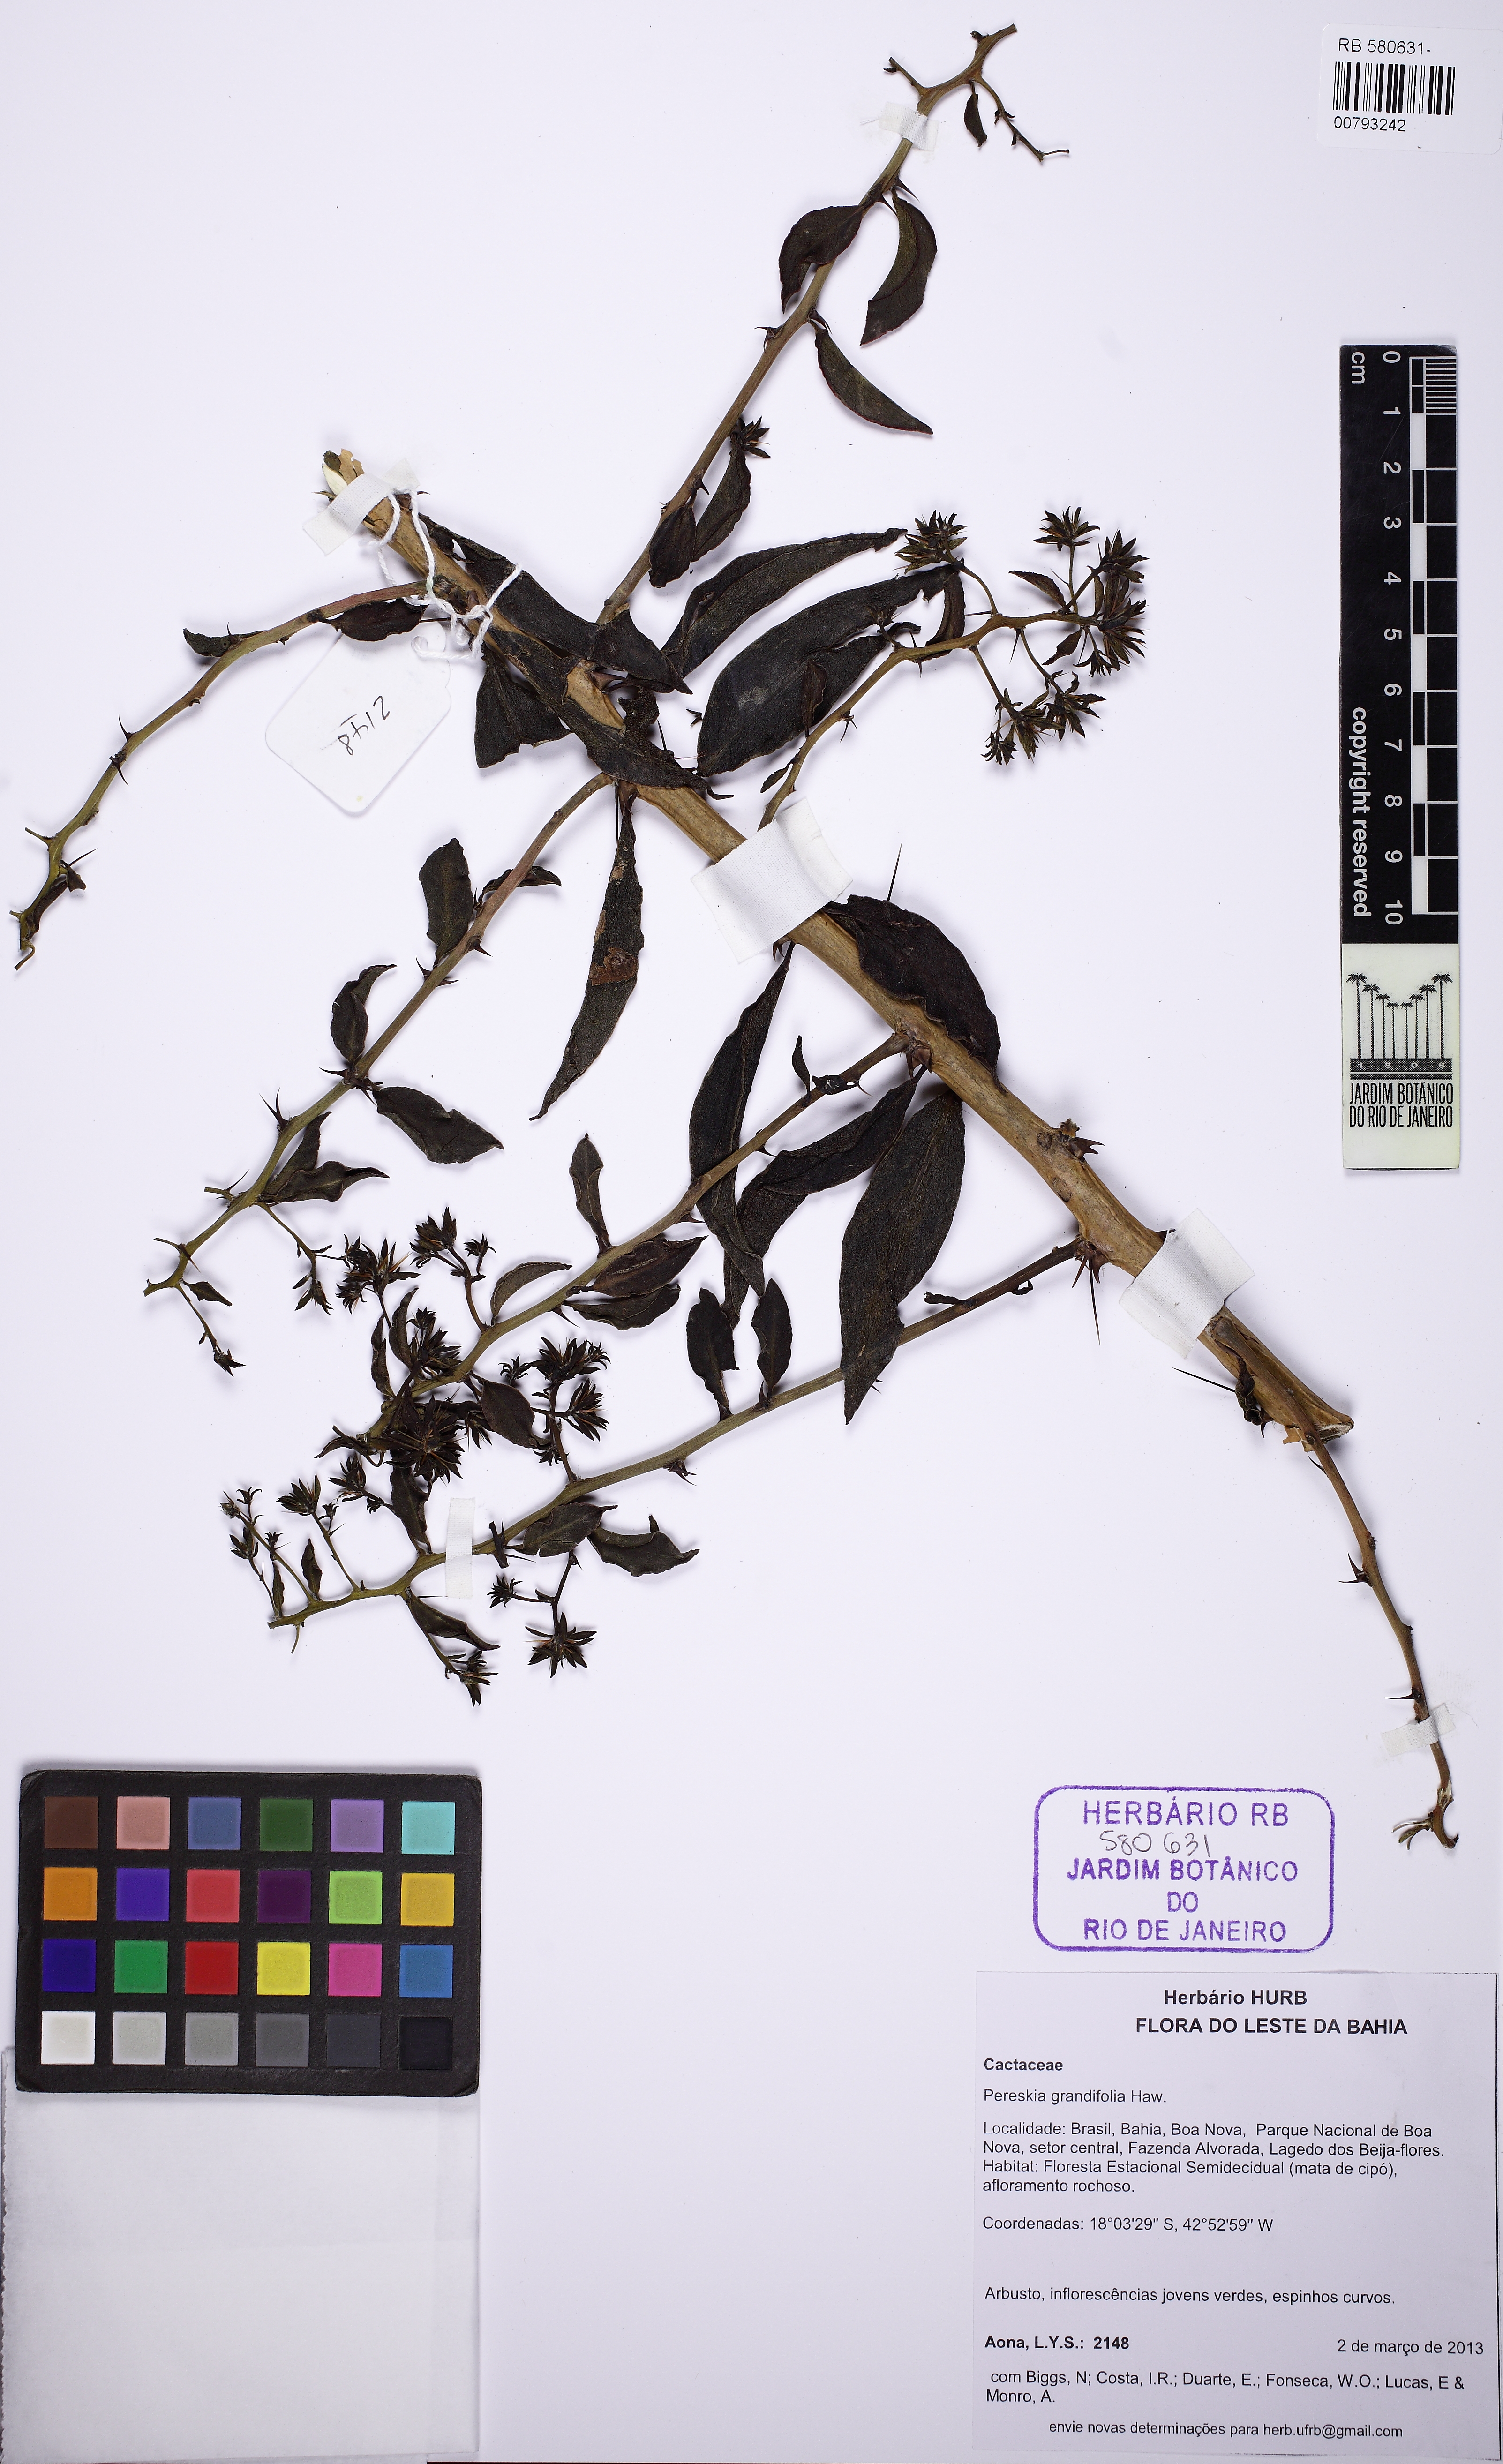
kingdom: Plantae
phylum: Tracheophyta
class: Magnoliopsida
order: Caryophyllales
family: Cactaceae
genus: Pereskia
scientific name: Pereskia aculeata
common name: Barbados gooseberry
